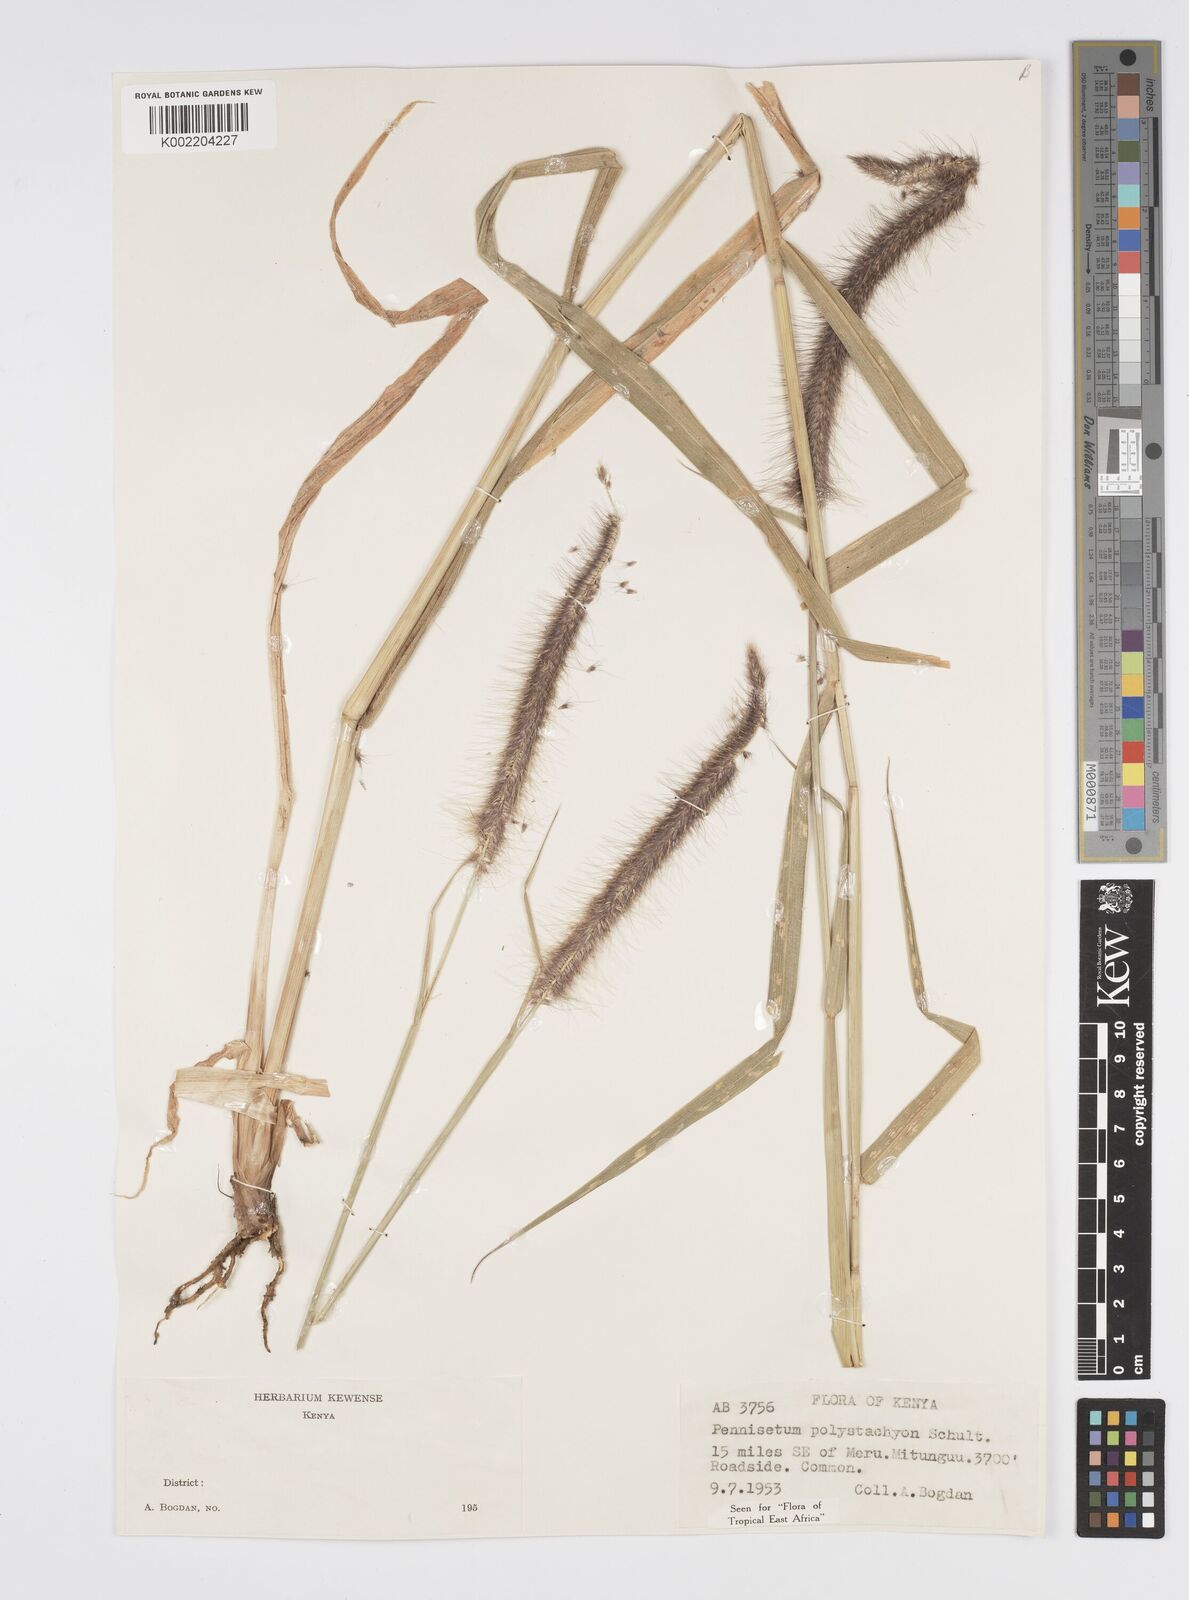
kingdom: Plantae
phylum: Tracheophyta
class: Liliopsida
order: Poales
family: Poaceae
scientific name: Poaceae
